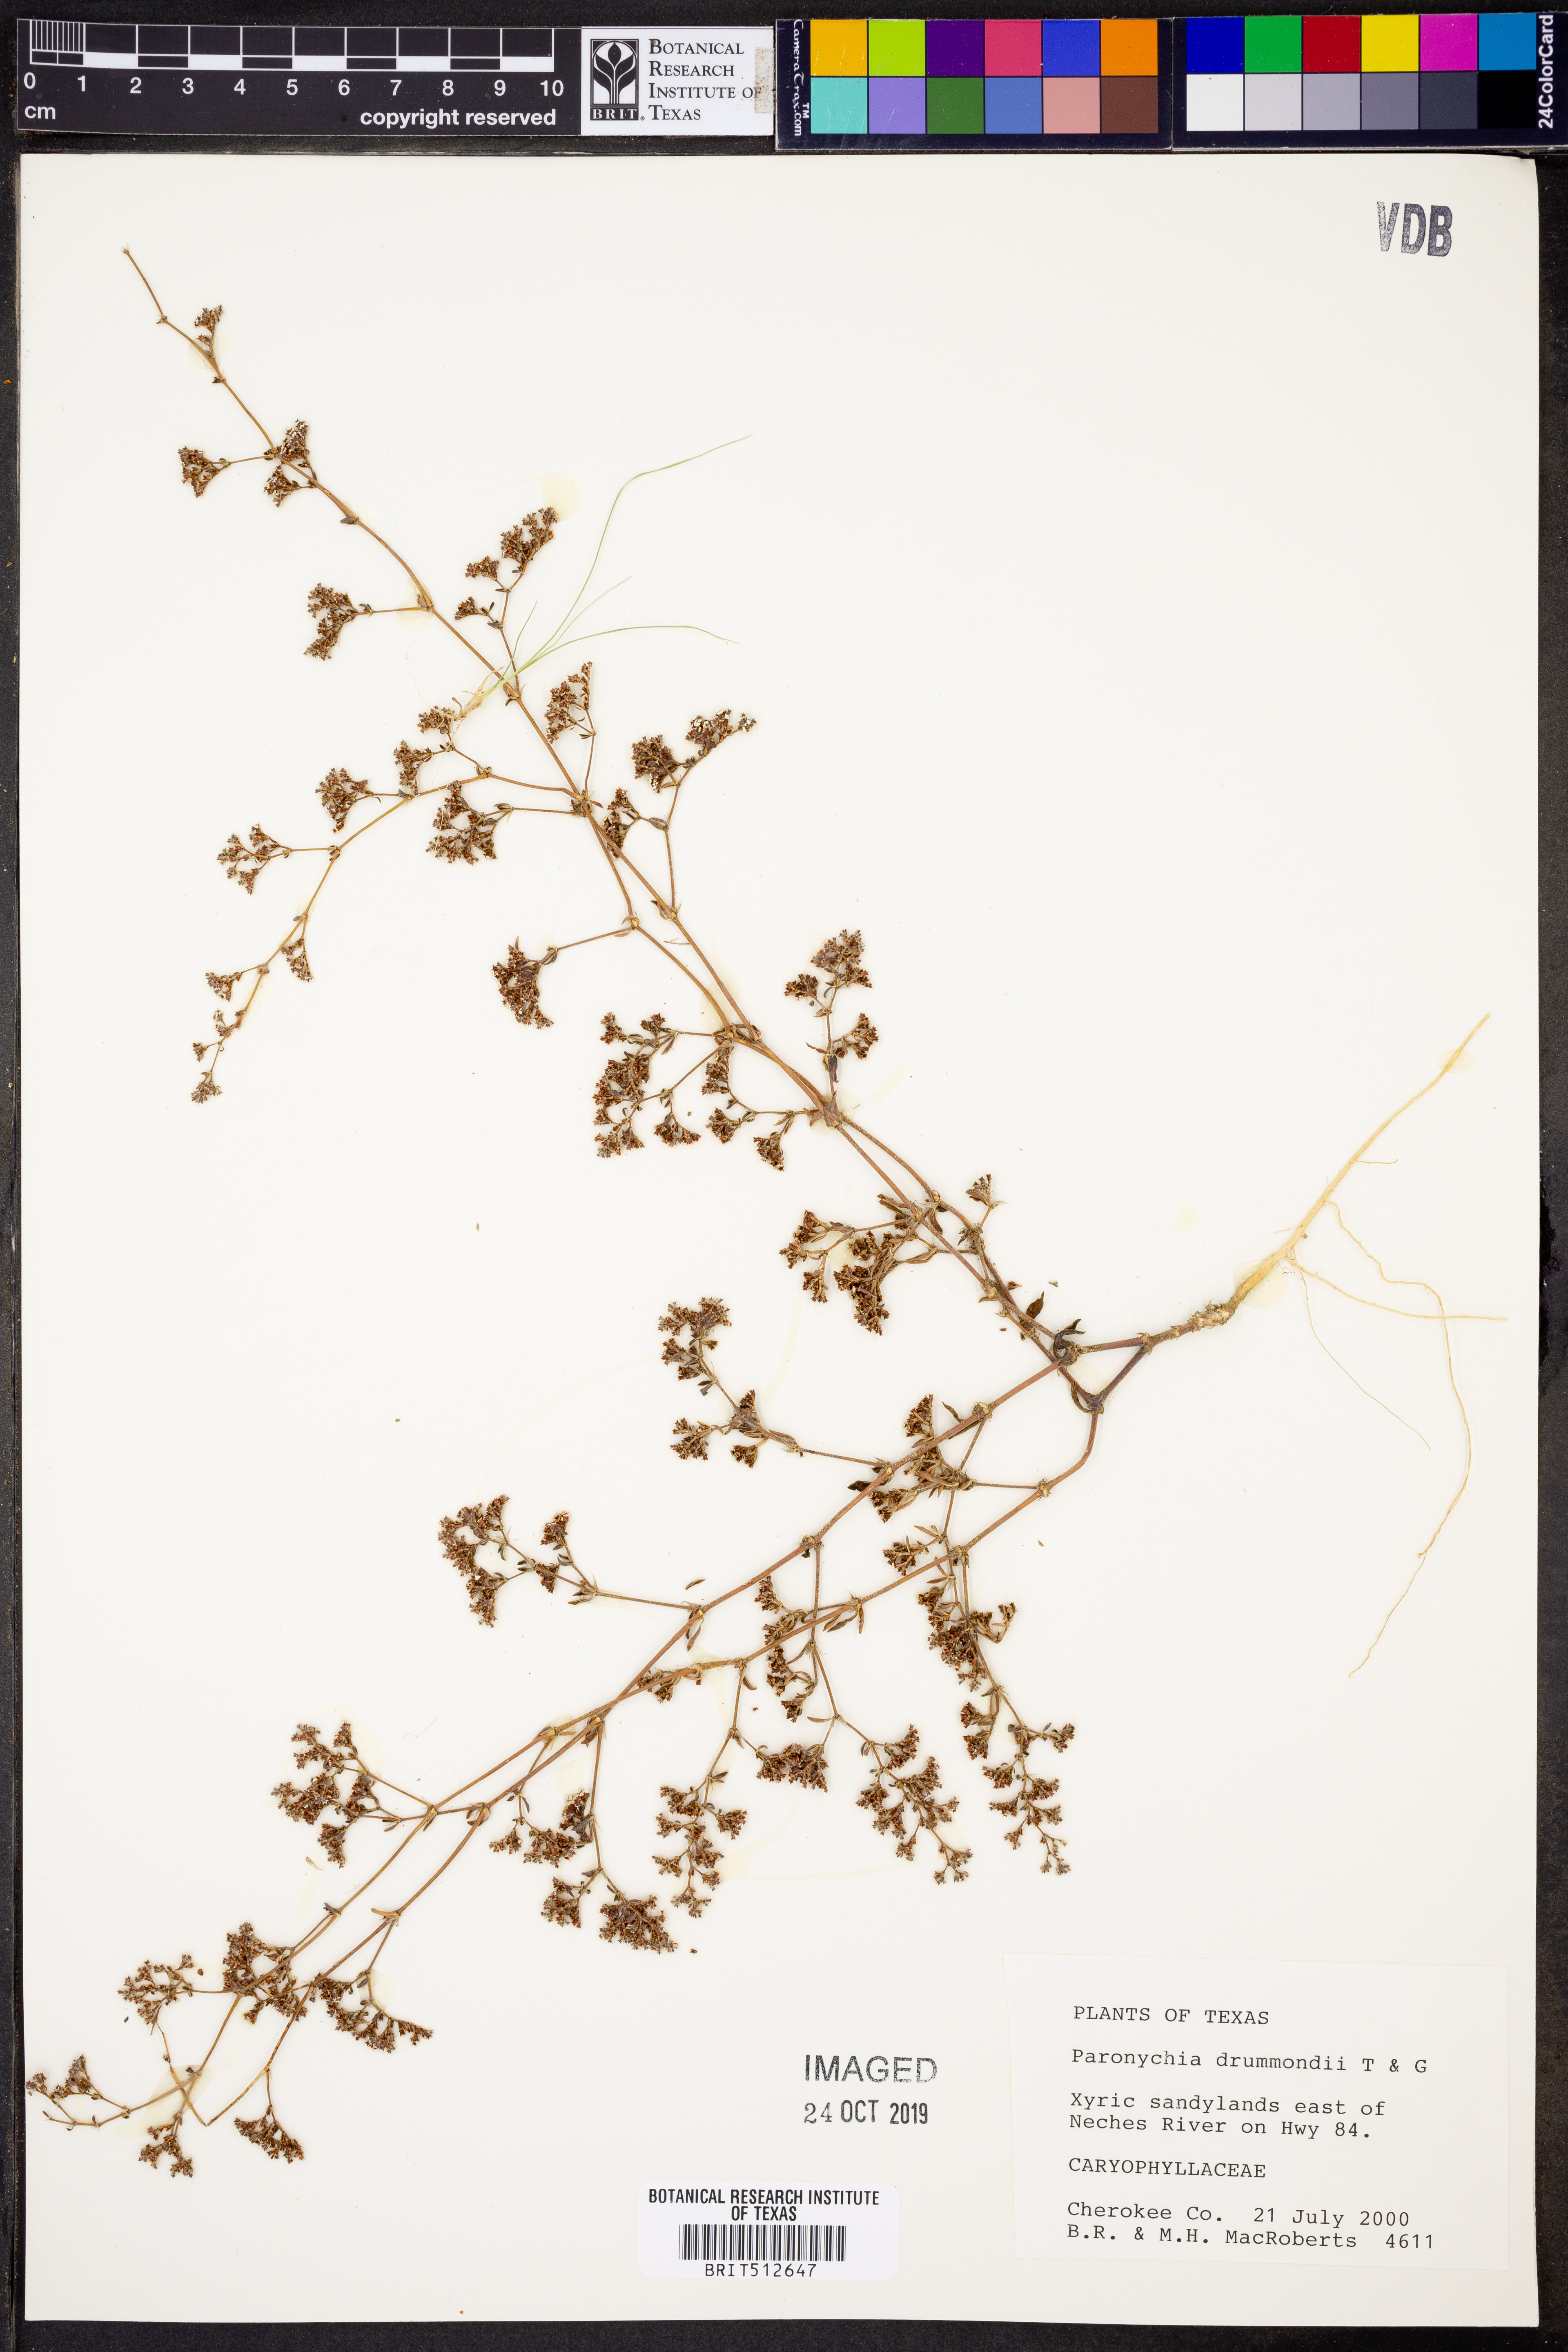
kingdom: Plantae
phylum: Tracheophyta
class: Magnoliopsida
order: Caryophyllales
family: Caryophyllaceae
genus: Paronychia
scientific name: Paronychia drummondii
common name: Drummond's nailwort
